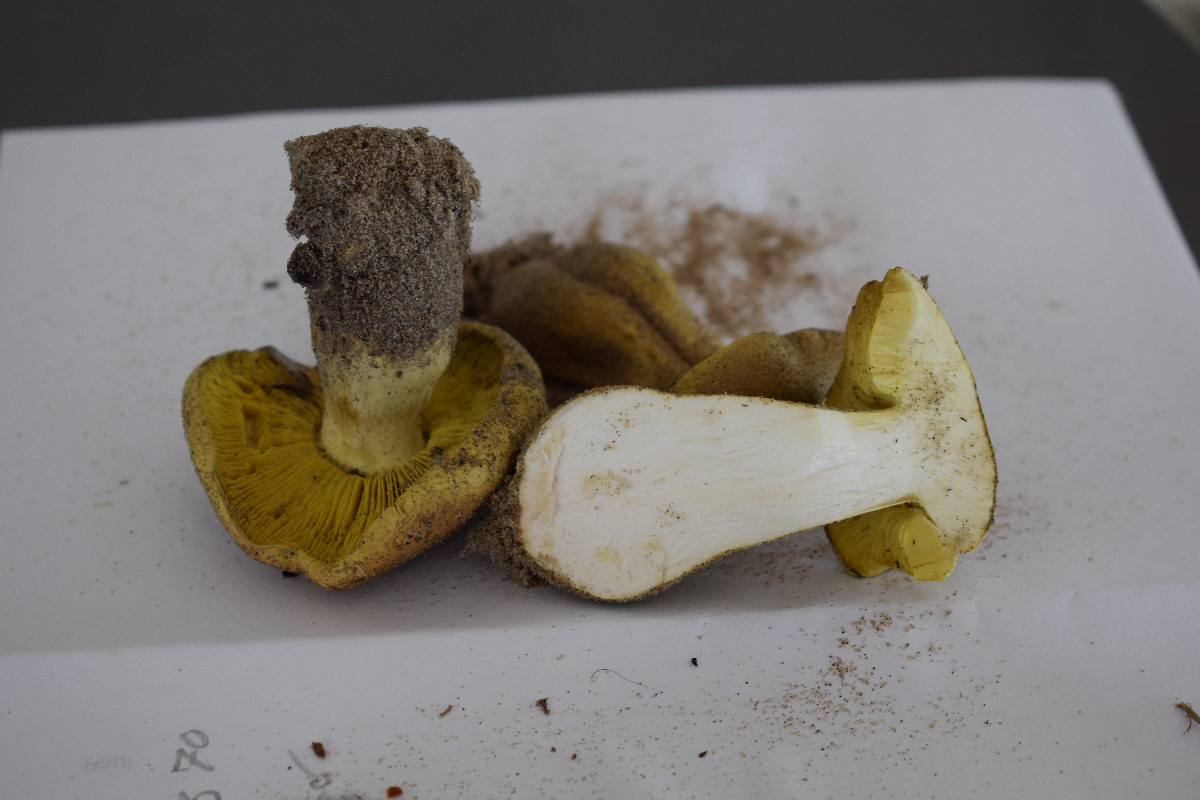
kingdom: Fungi
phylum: Basidiomycota
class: Agaricomycetes
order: Agaricales
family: Tricholomataceae
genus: Tricholoma
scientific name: Tricholoma equestre
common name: ægte ridderhat
